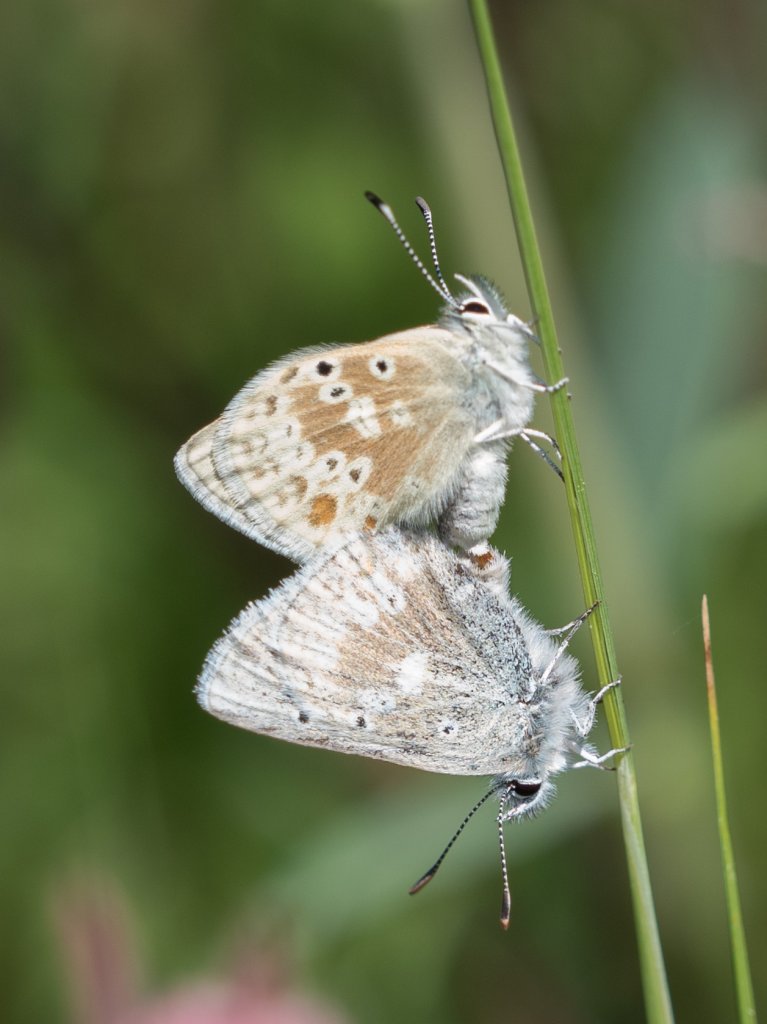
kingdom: Animalia
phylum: Arthropoda
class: Insecta
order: Lepidoptera
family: Lycaenidae
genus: Agriades
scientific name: Agriades glandon
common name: Arctic Blue
